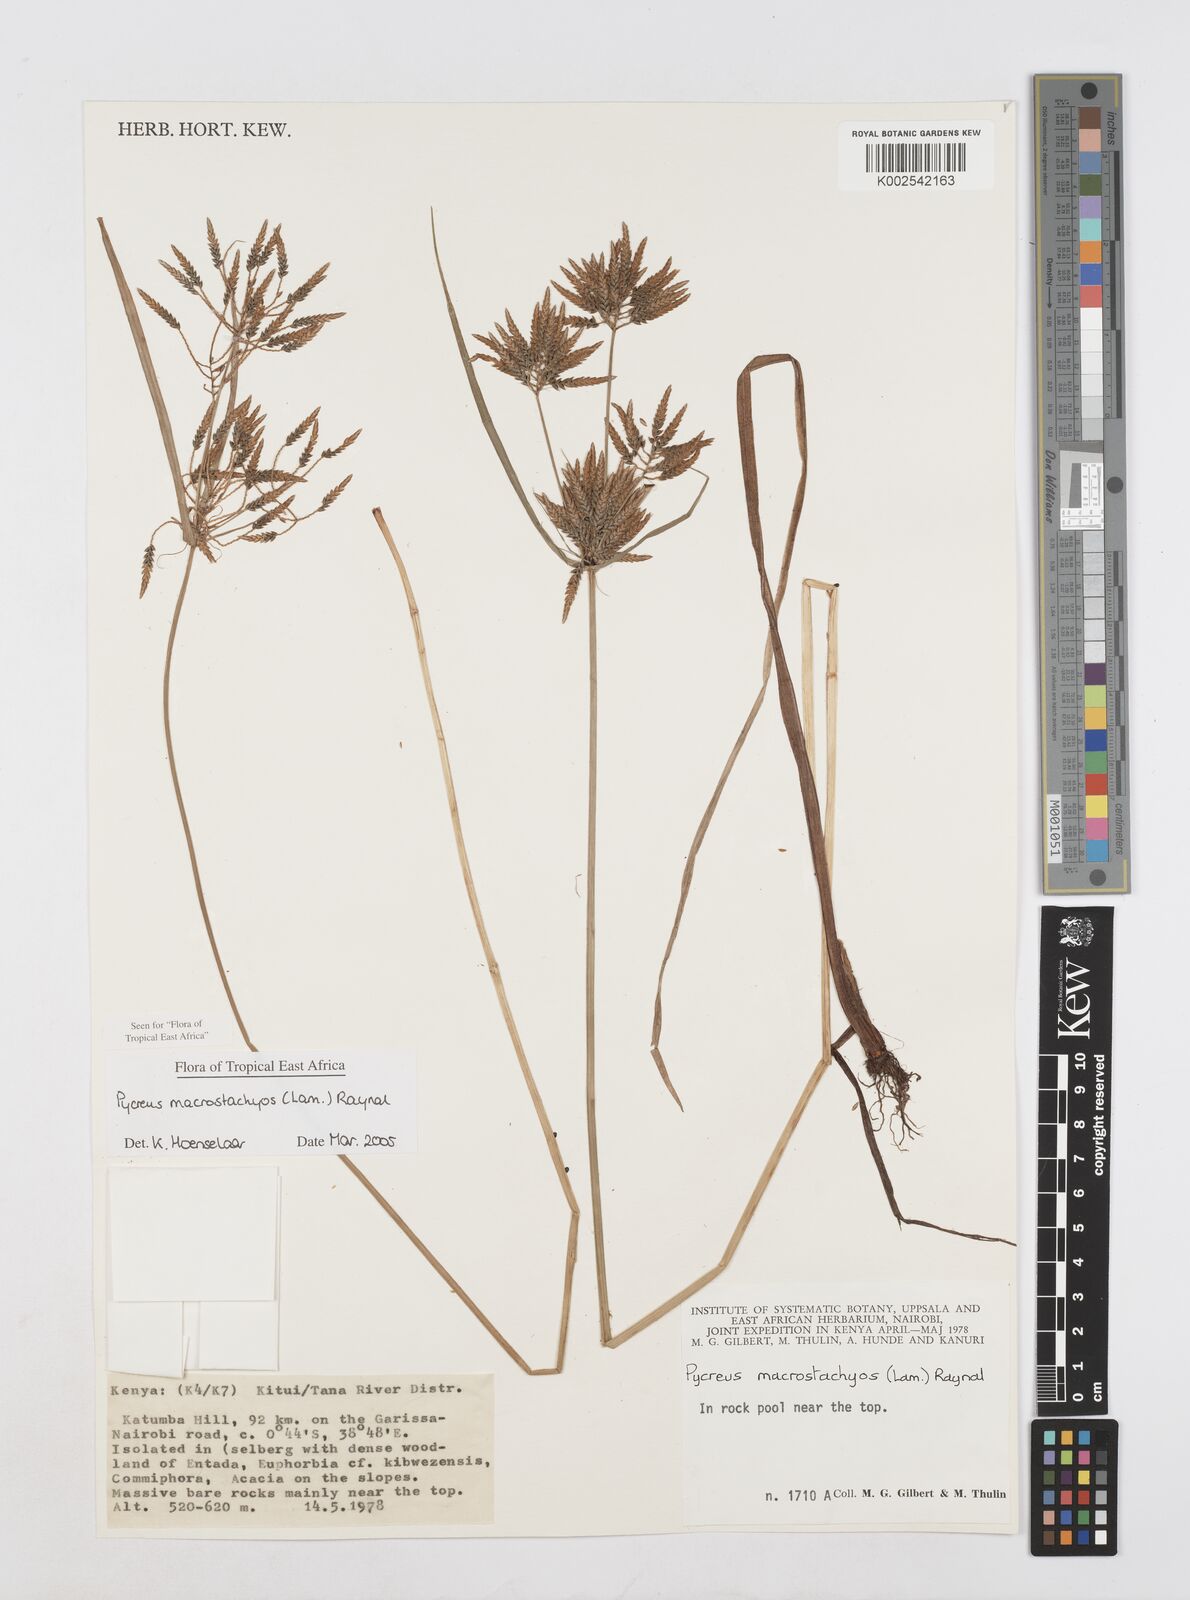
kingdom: Plantae
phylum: Tracheophyta
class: Liliopsida
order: Poales
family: Cyperaceae
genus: Cyperus
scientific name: Cyperus macrostachyos
